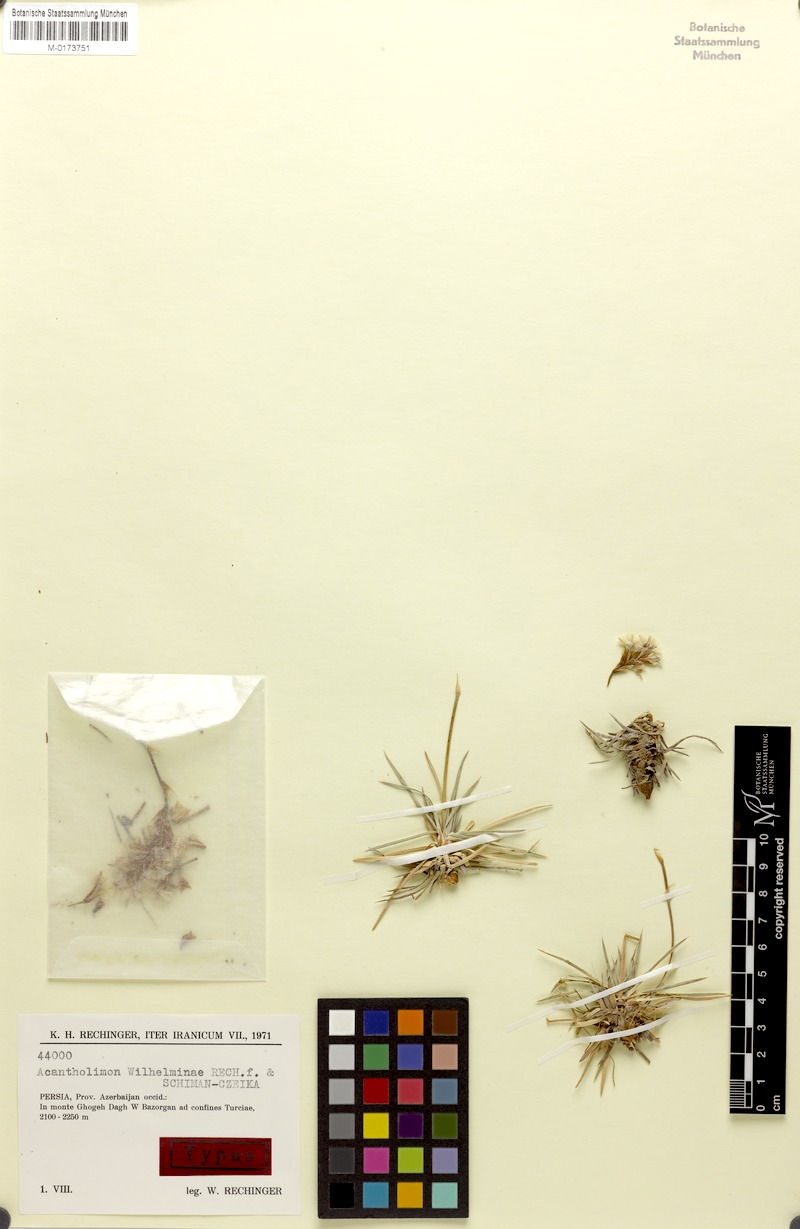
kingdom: Plantae
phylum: Tracheophyta
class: Magnoliopsida
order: Caryophyllales
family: Plumbaginaceae
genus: Acantholimon
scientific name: Acantholimon wilhelminae
